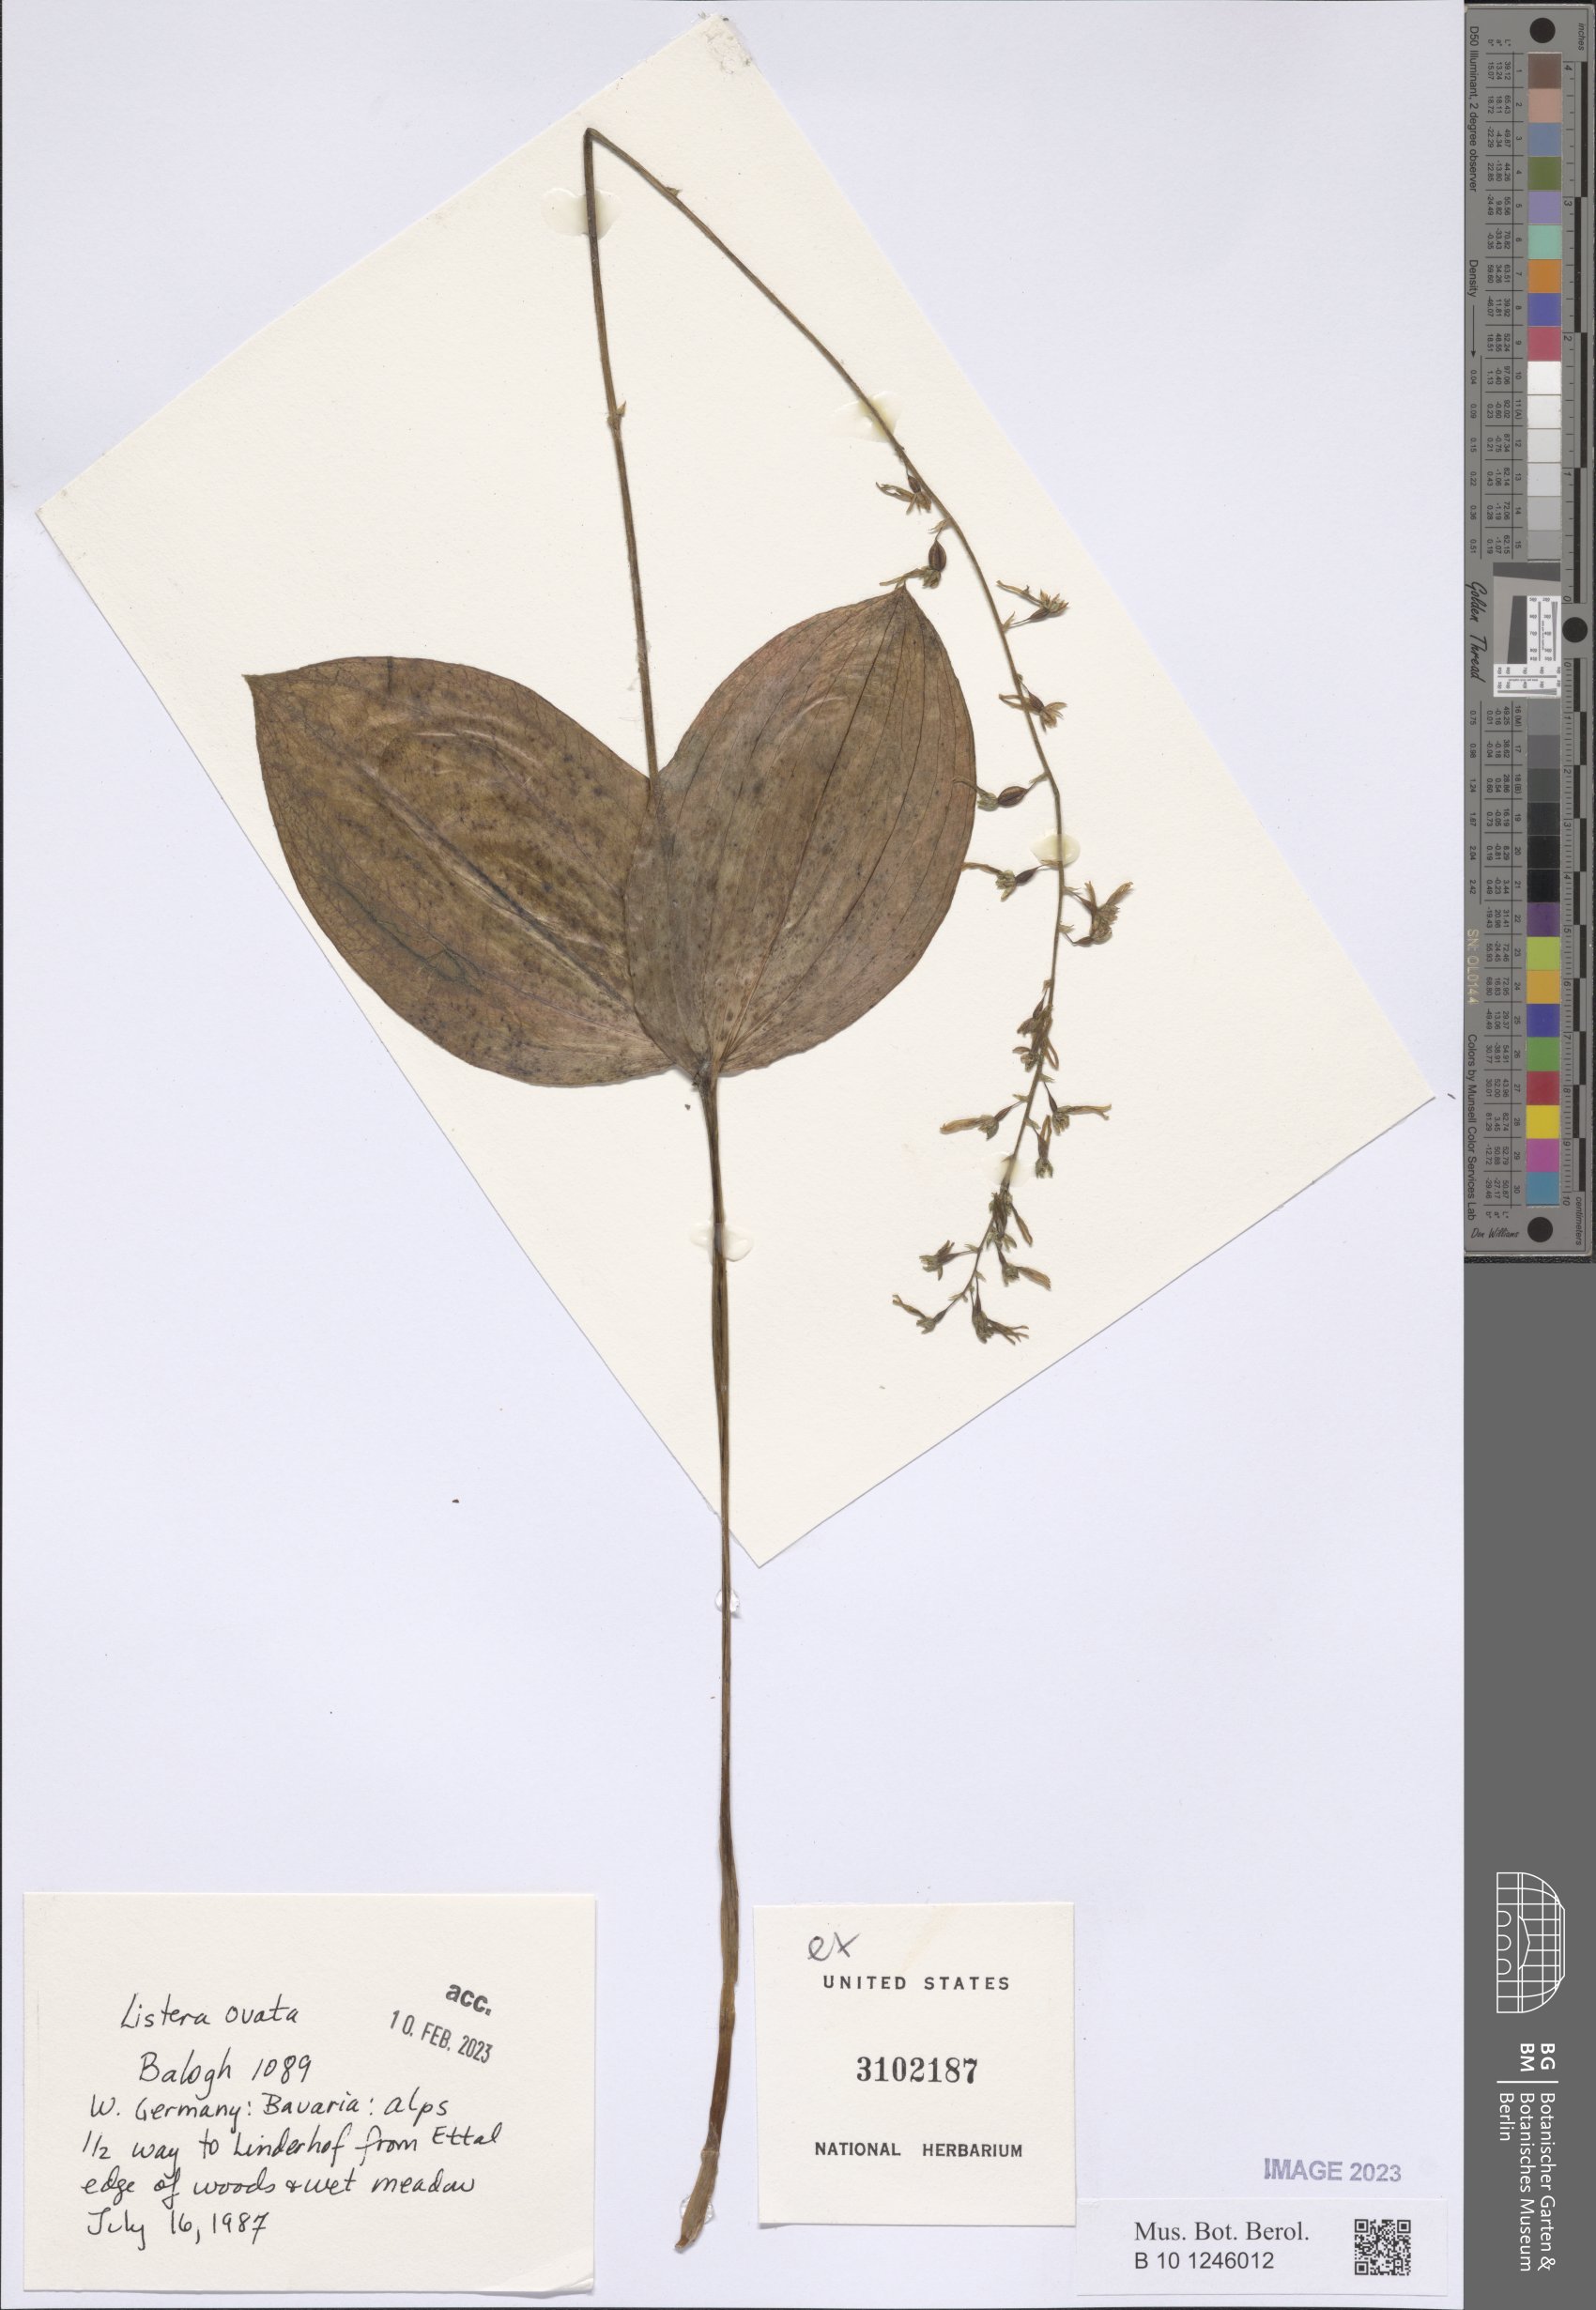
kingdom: Plantae
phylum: Tracheophyta
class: Liliopsida
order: Asparagales
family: Orchidaceae
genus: Neottia
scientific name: Neottia ovata
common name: Common twayblade
